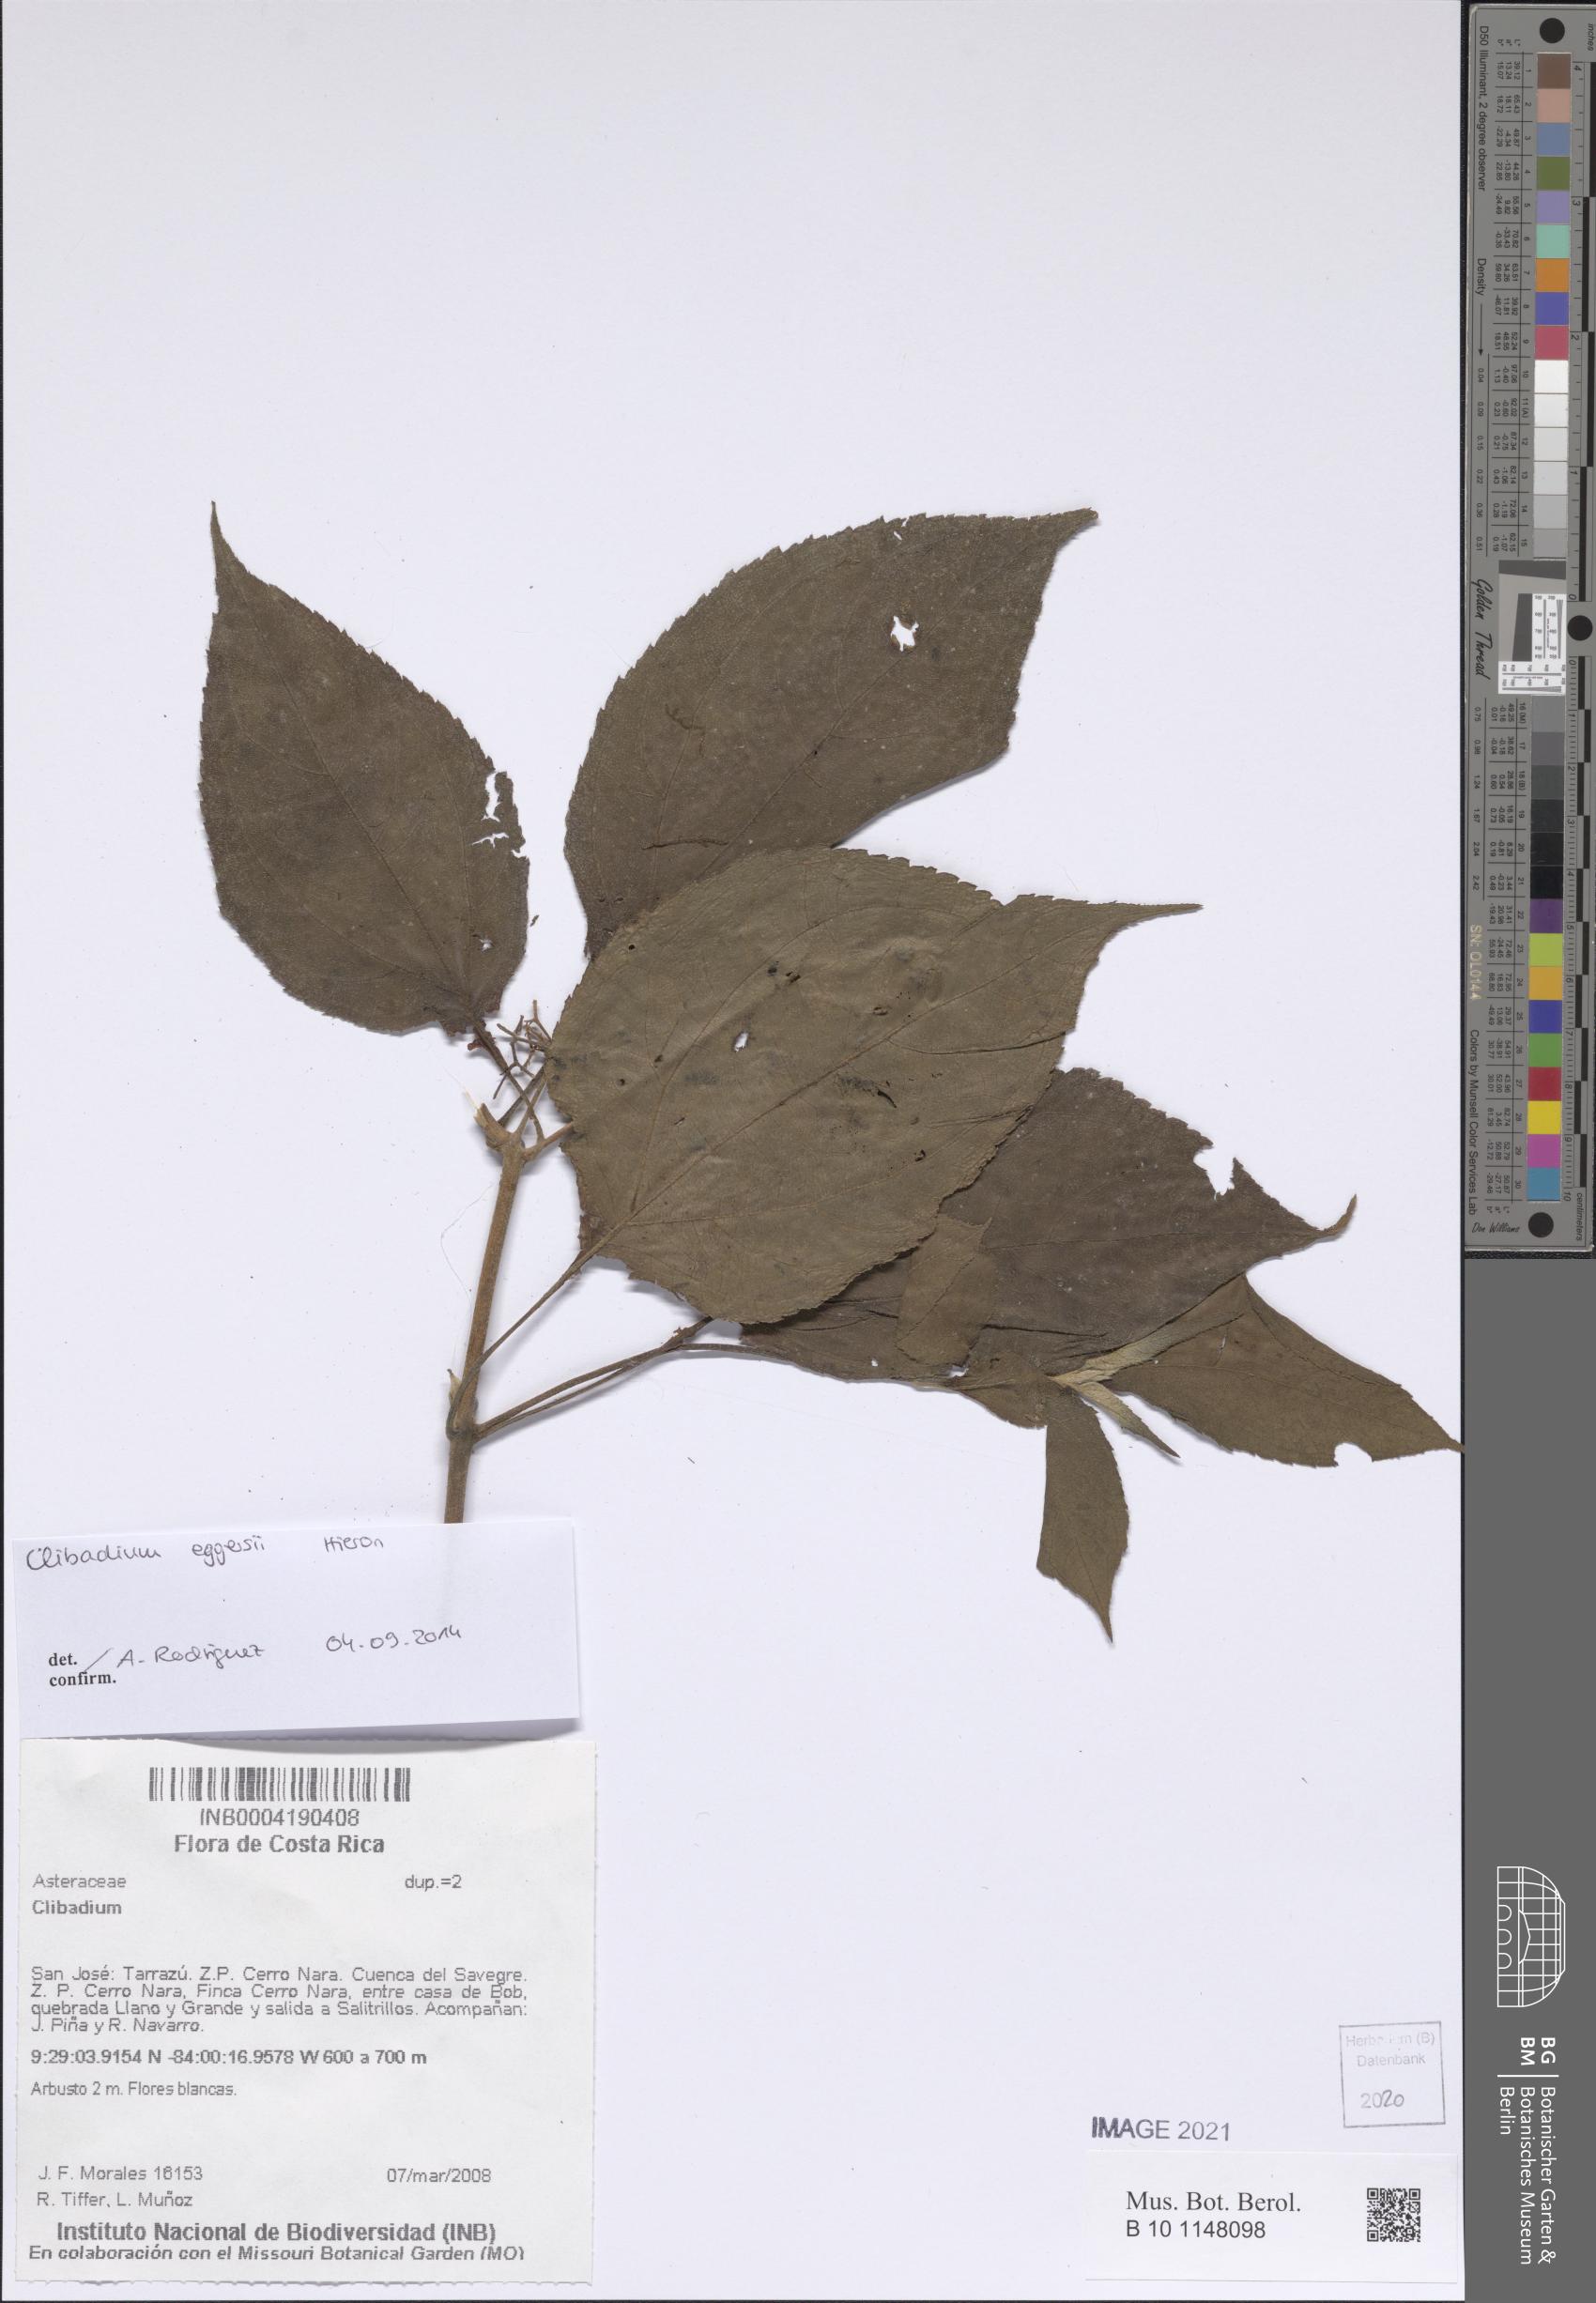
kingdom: Plantae
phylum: Tracheophyta
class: Magnoliopsida
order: Asterales
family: Asteraceae
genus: Clibadium
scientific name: Clibadium eggersii
